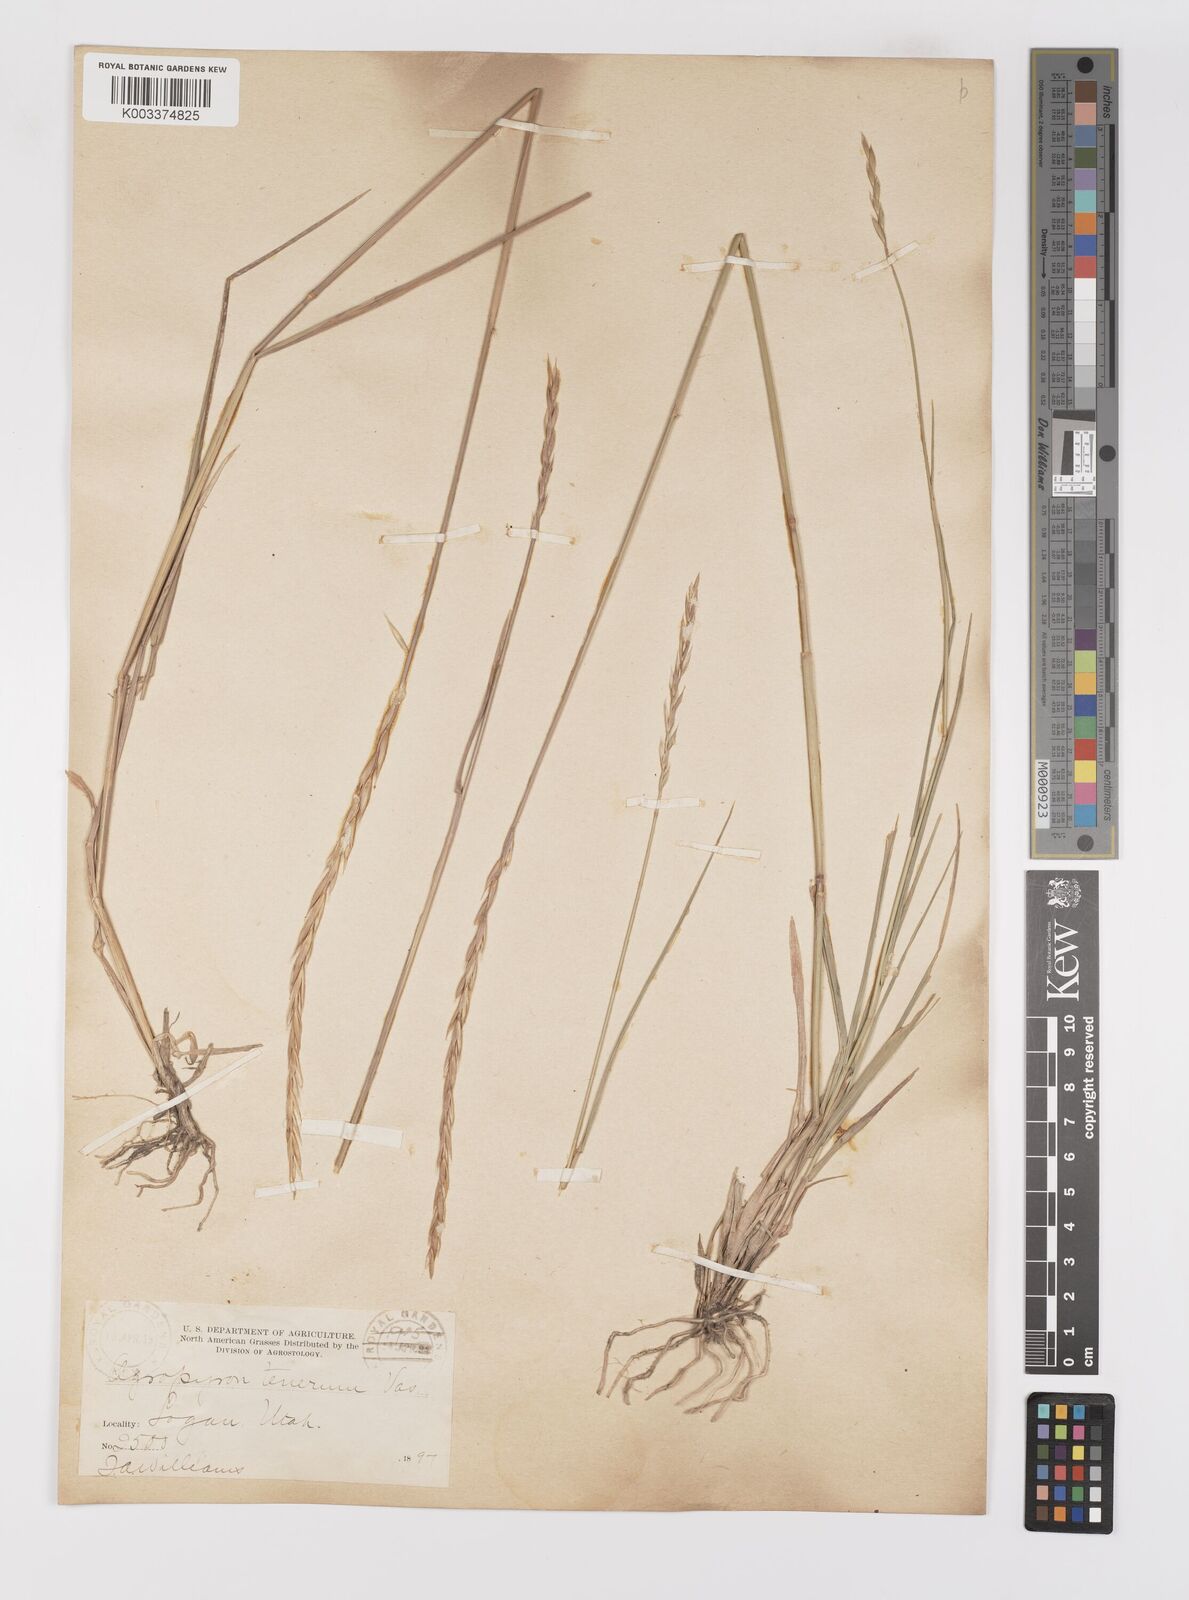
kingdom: Plantae
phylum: Tracheophyta
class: Liliopsida
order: Poales
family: Poaceae
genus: Elymus
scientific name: Elymus violaceus
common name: Arctic wheatgrass
